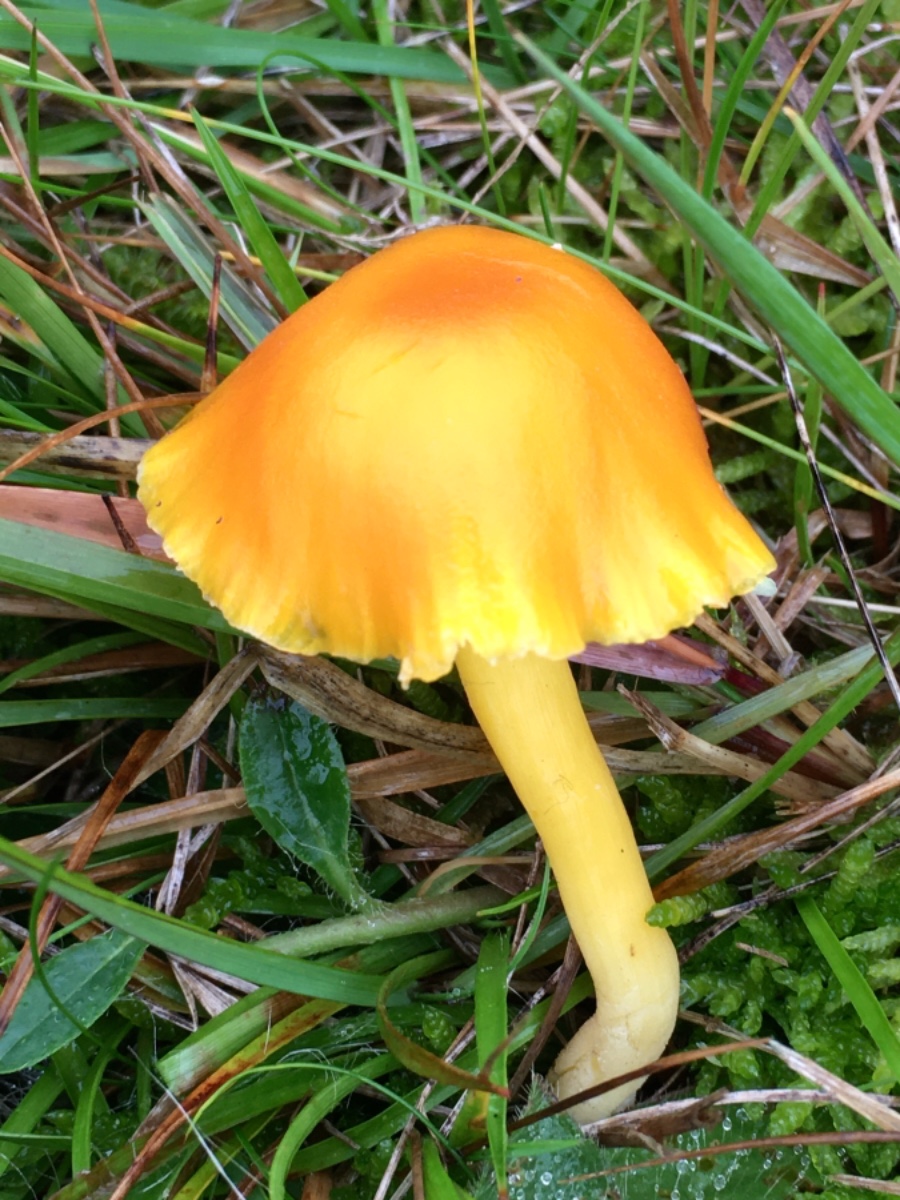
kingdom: Fungi
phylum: Basidiomycota
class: Agaricomycetes
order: Agaricales
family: Hygrophoraceae
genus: Hygrocybe
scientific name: Hygrocybe ceracea
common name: voksgul vokshat
